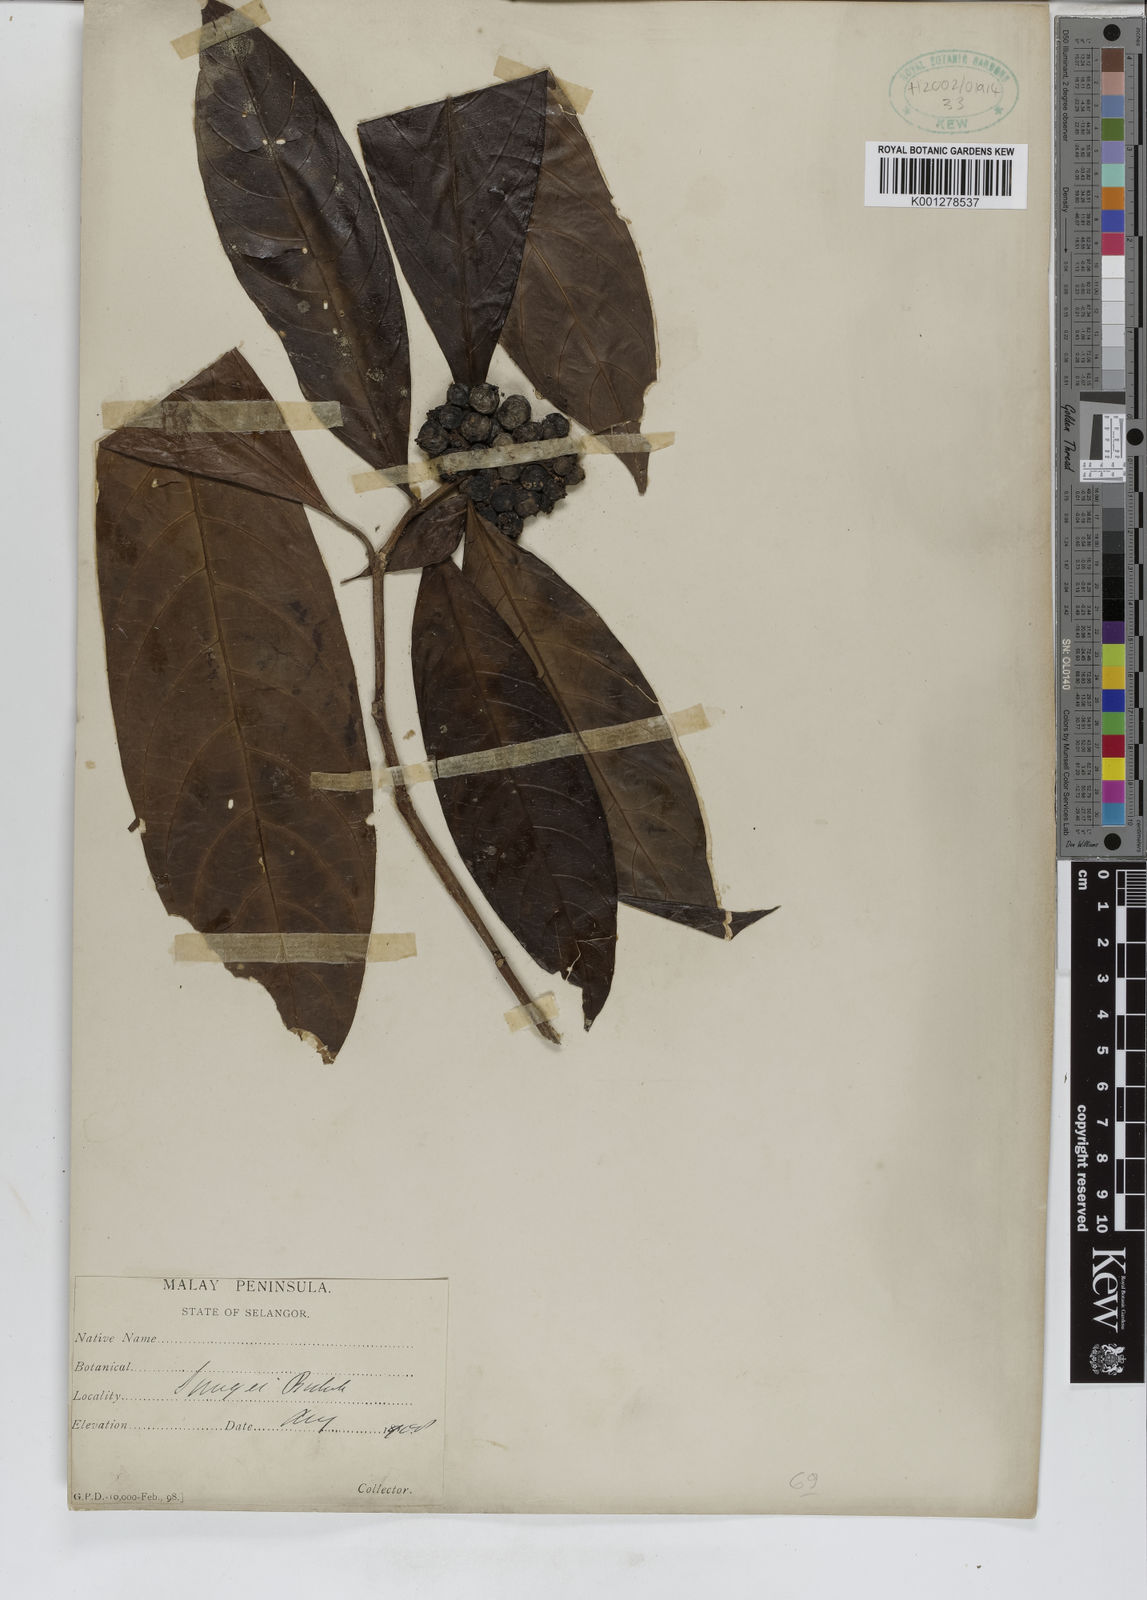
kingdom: Plantae
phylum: Tracheophyta
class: Magnoliopsida
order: Gentianales
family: Rubiaceae
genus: Tarenna
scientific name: Tarenna
